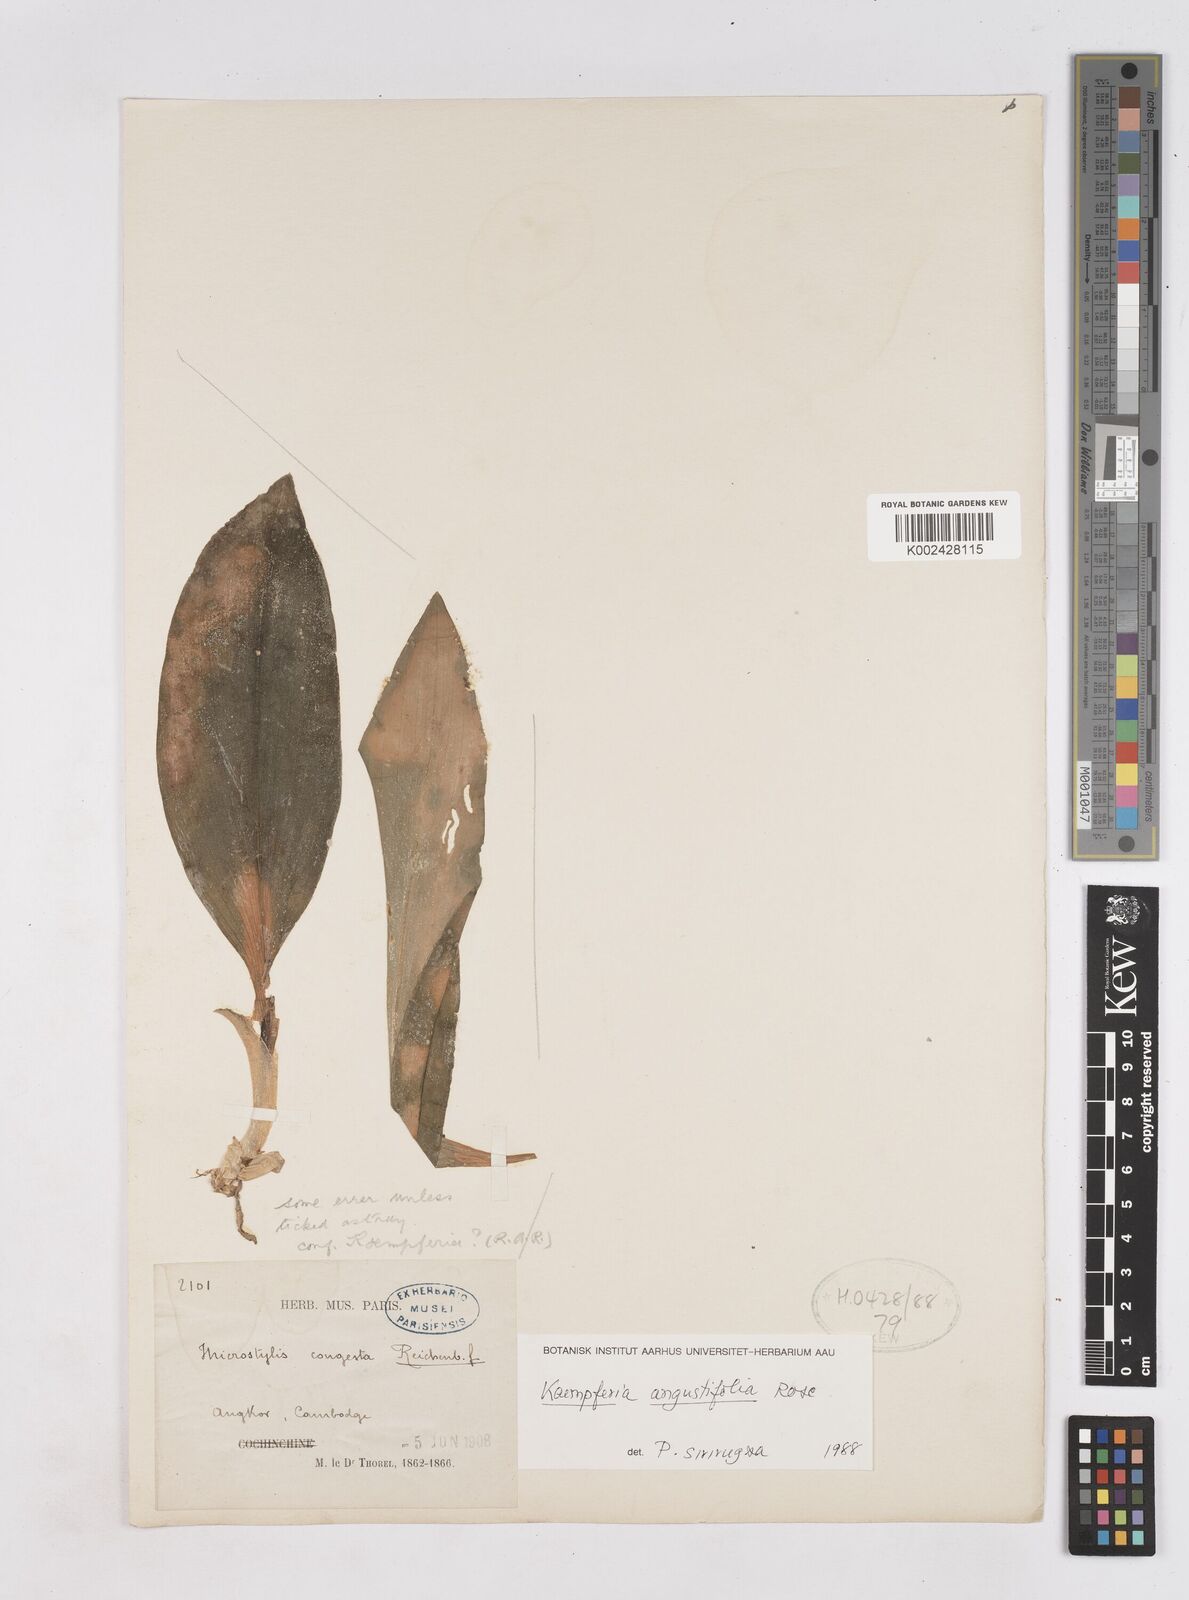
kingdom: Plantae
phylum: Tracheophyta
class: Liliopsida
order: Zingiberales
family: Zingiberaceae
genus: Kaempferia
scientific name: Kaempferia angustifolia
